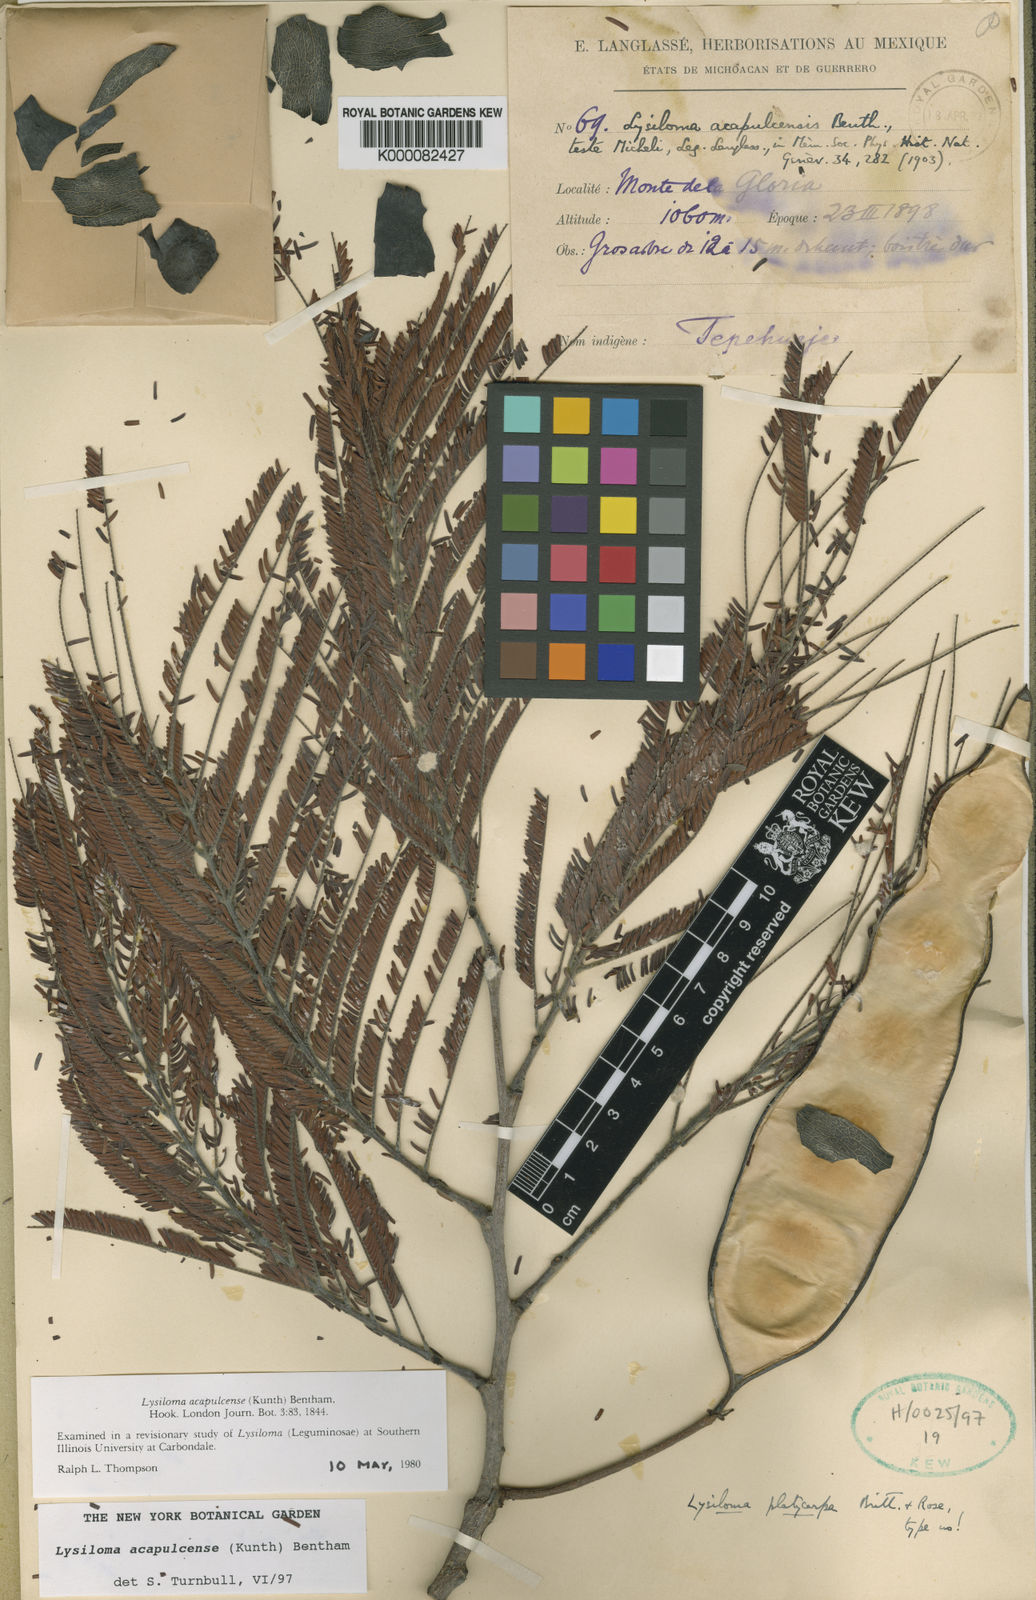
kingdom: Plantae
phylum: Tracheophyta
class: Magnoliopsida
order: Fabales
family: Fabaceae
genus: Lysiloma
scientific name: Lysiloma
